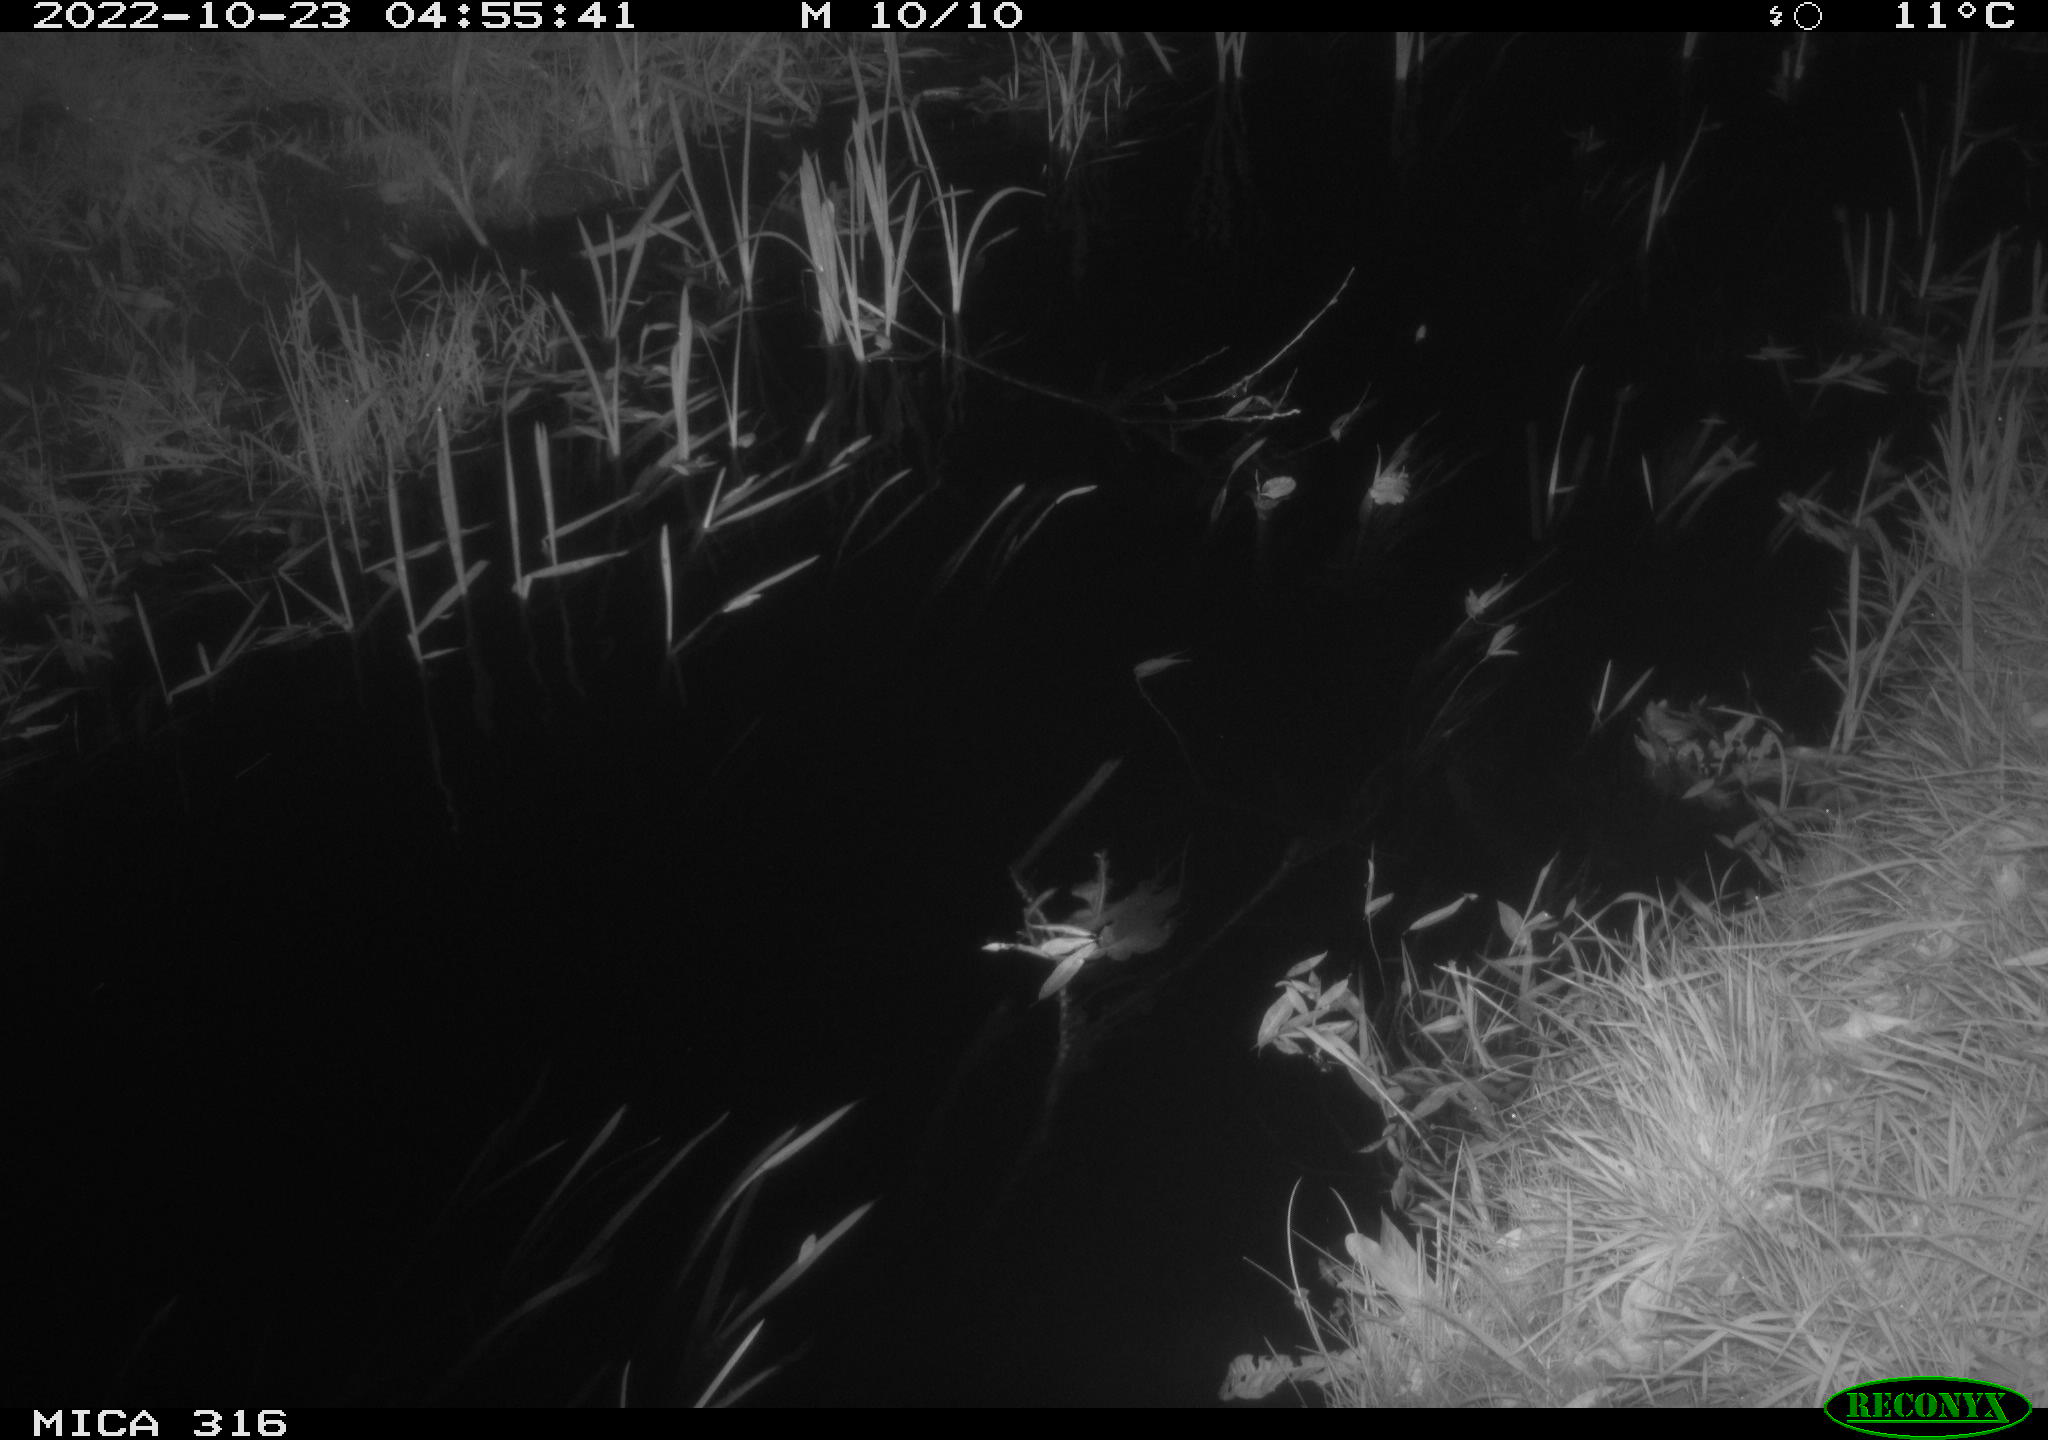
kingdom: Animalia
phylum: Chordata
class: Mammalia
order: Rodentia
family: Muridae
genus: Rattus
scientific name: Rattus norvegicus
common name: Brown rat
